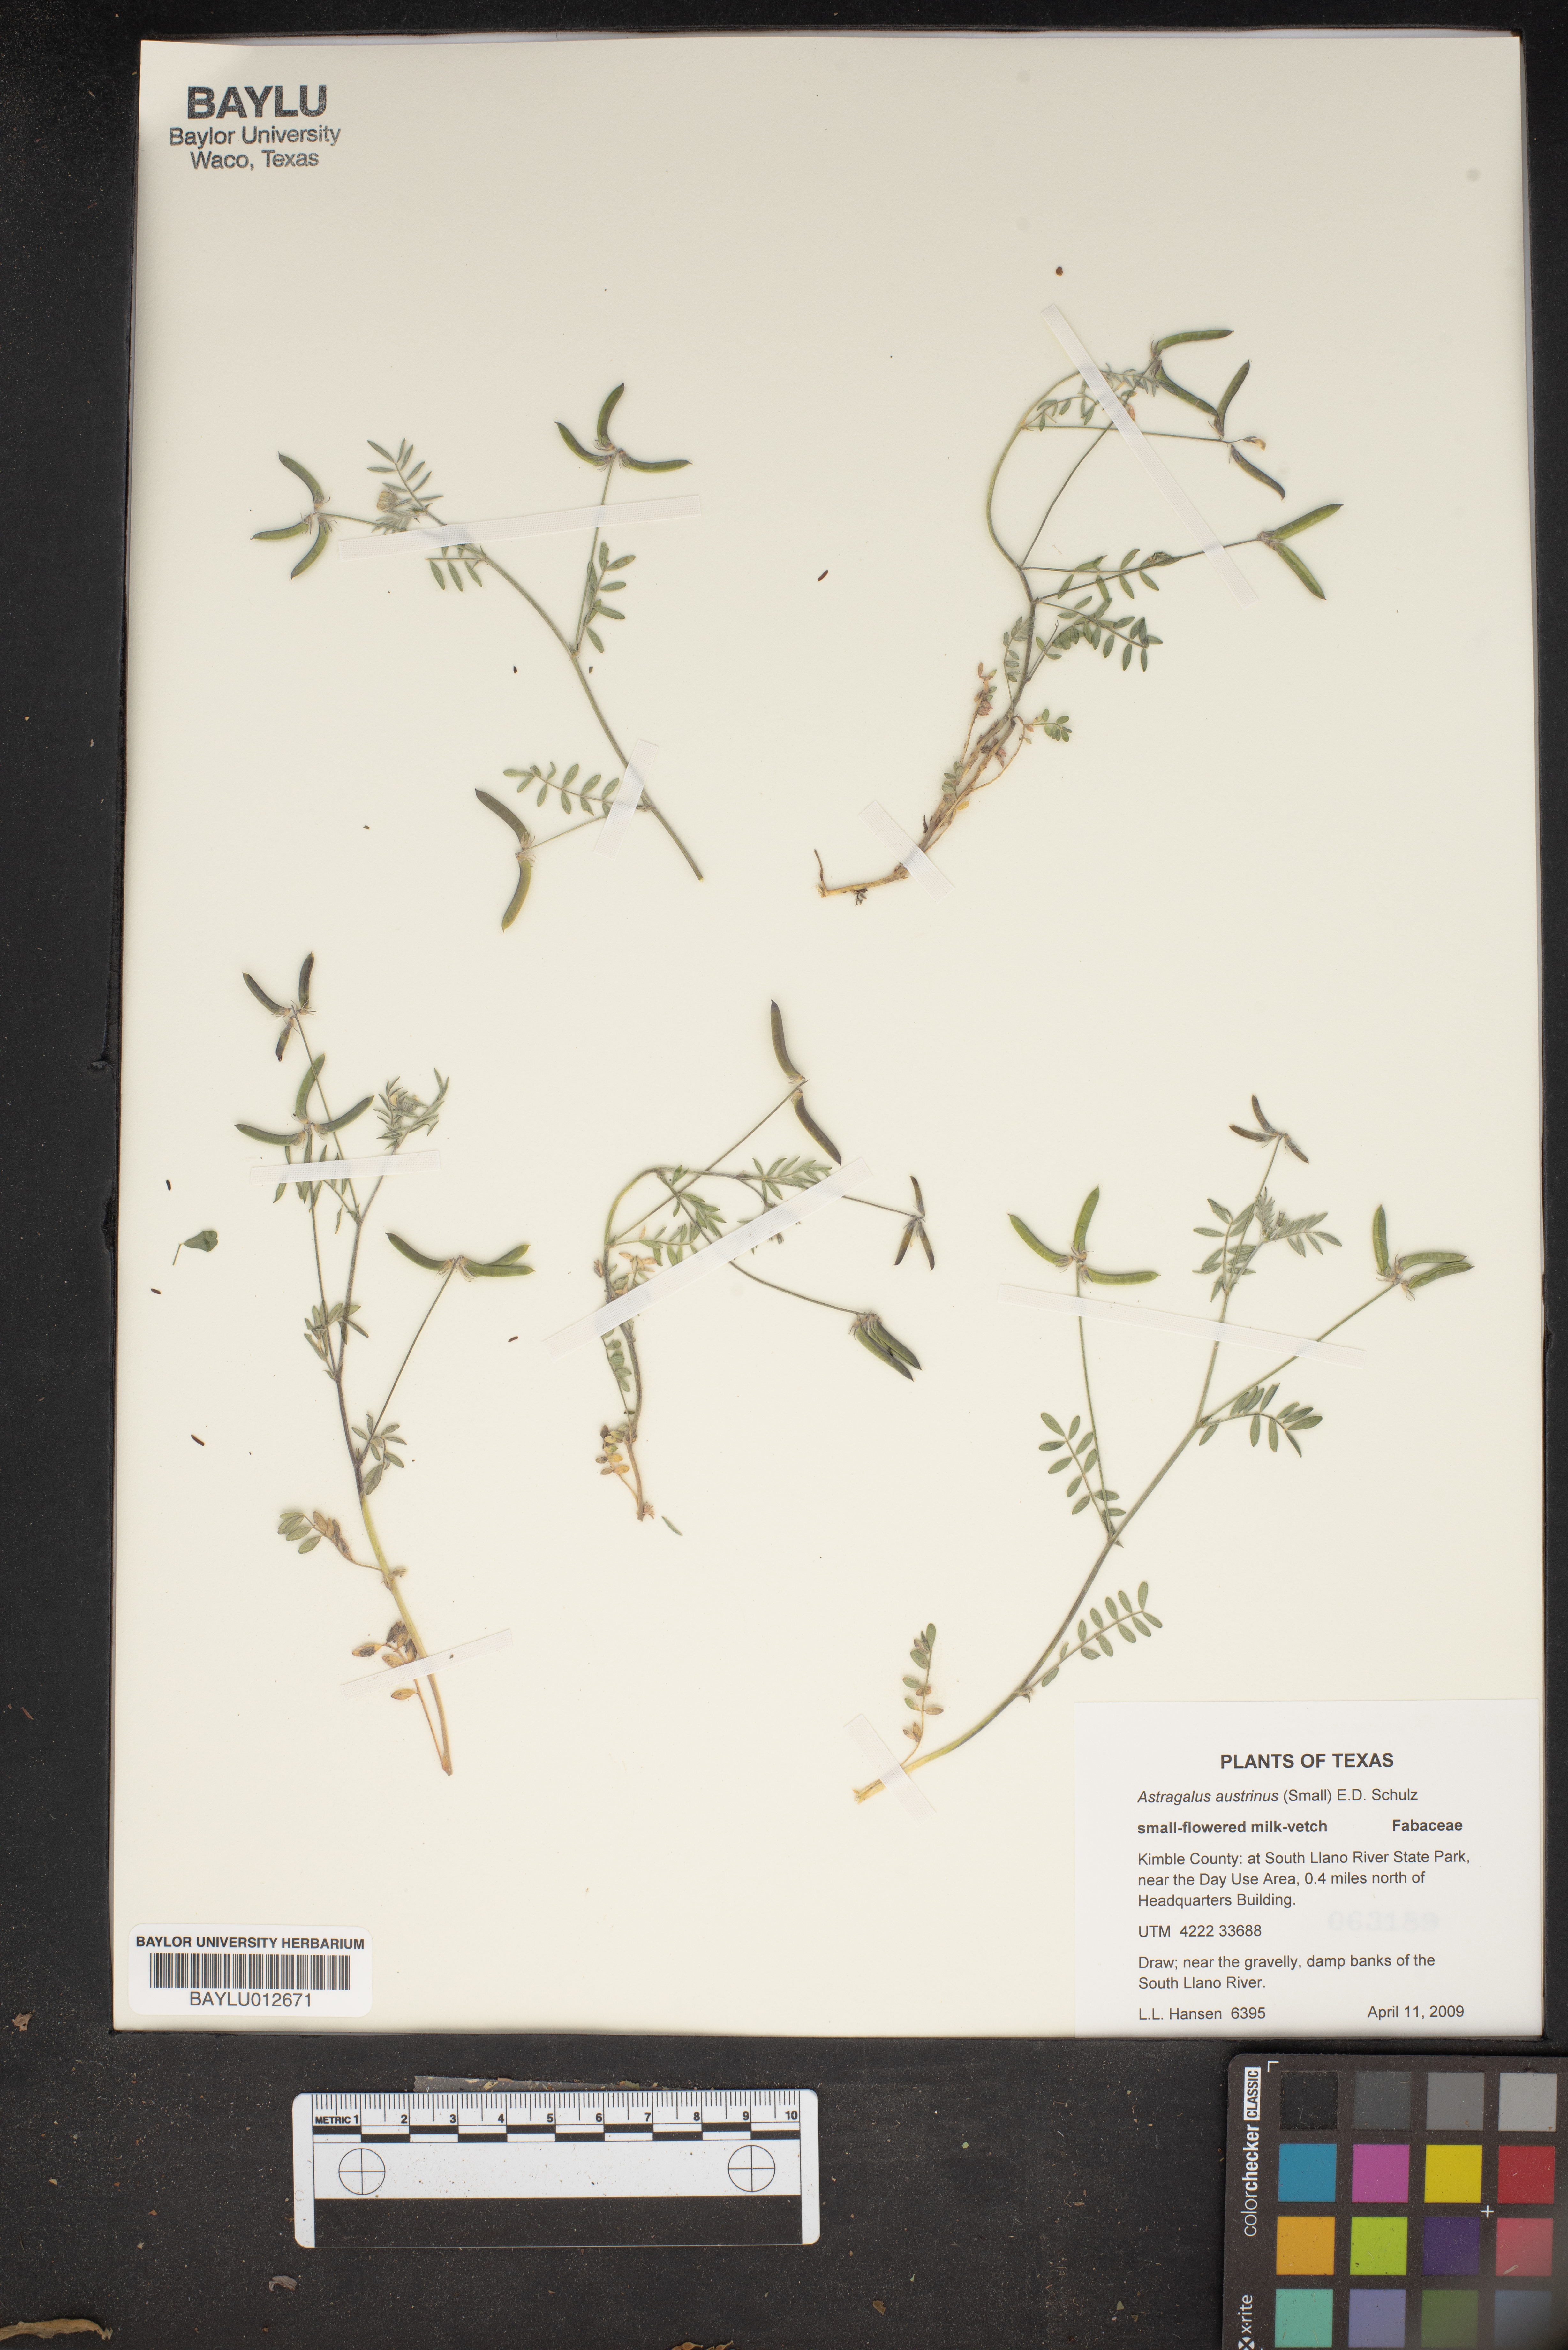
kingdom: Plantae
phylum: Tracheophyta
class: Magnoliopsida
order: Fabales
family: Fabaceae
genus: Astragalus
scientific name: Astragalus nuttallianus
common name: Smallflowered milkvetch
